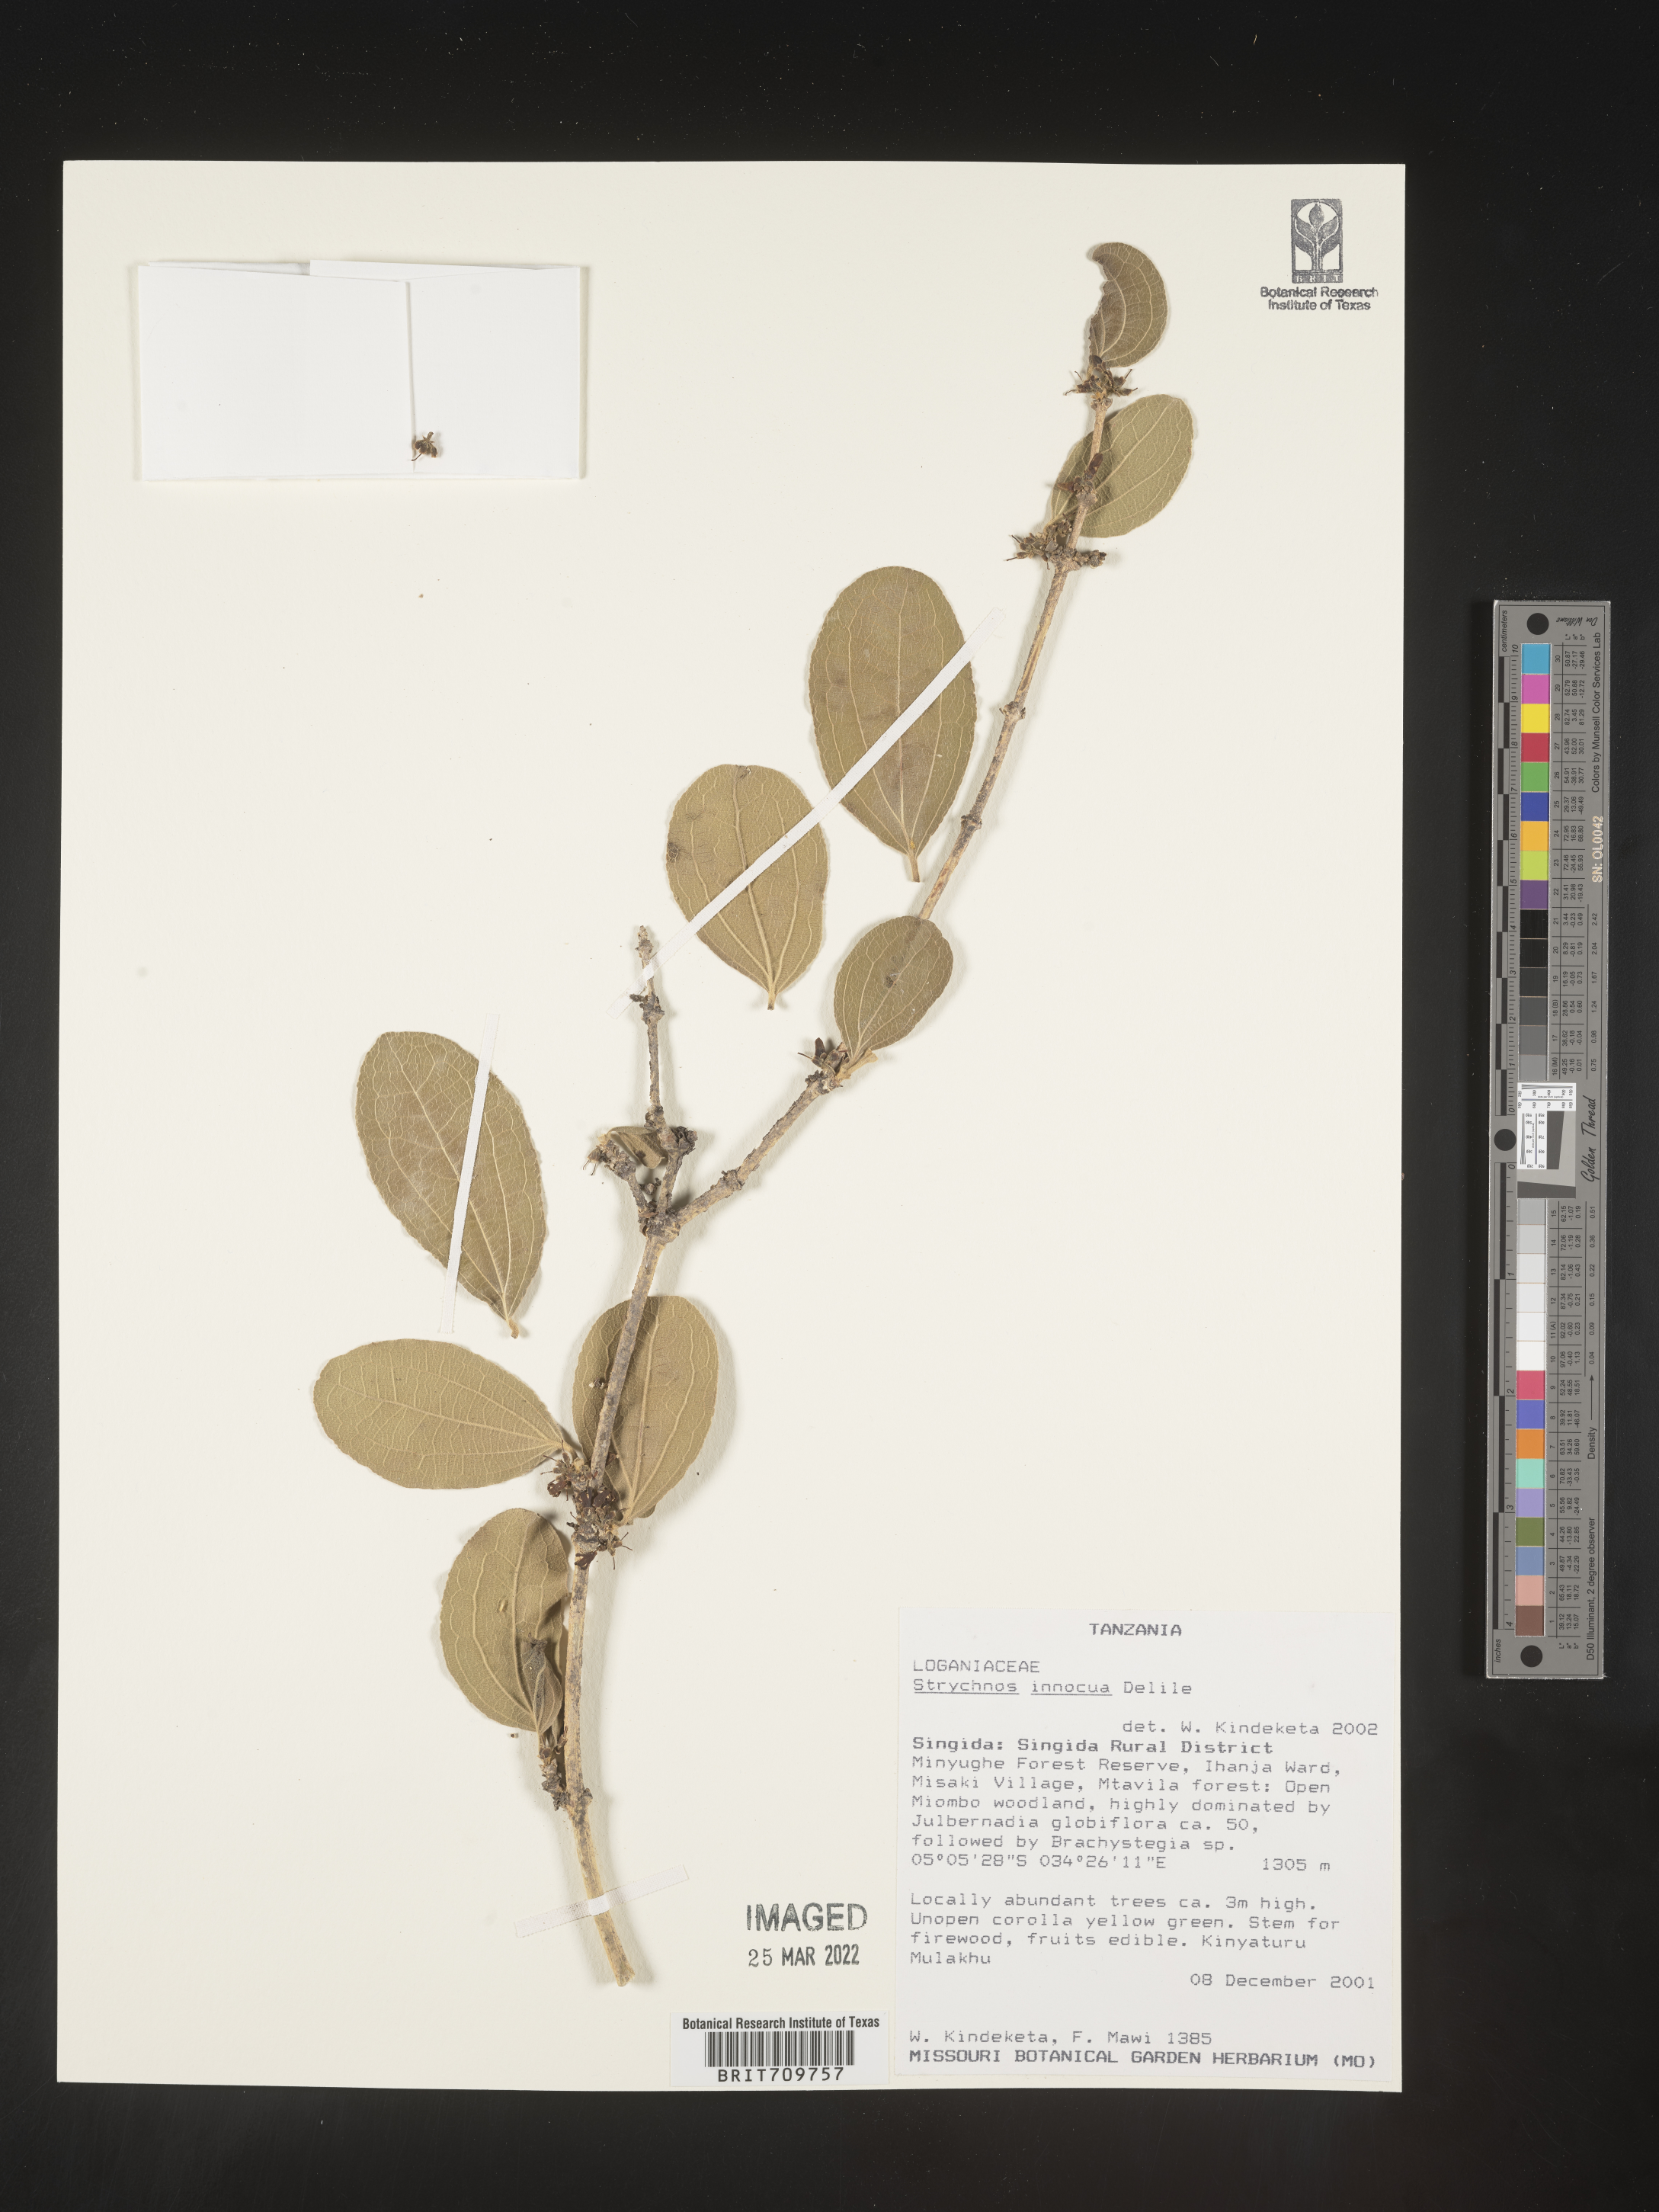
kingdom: Plantae
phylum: Tracheophyta
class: Magnoliopsida
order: Gentianales
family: Loganiaceae
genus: Strychnos
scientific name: Strychnos
